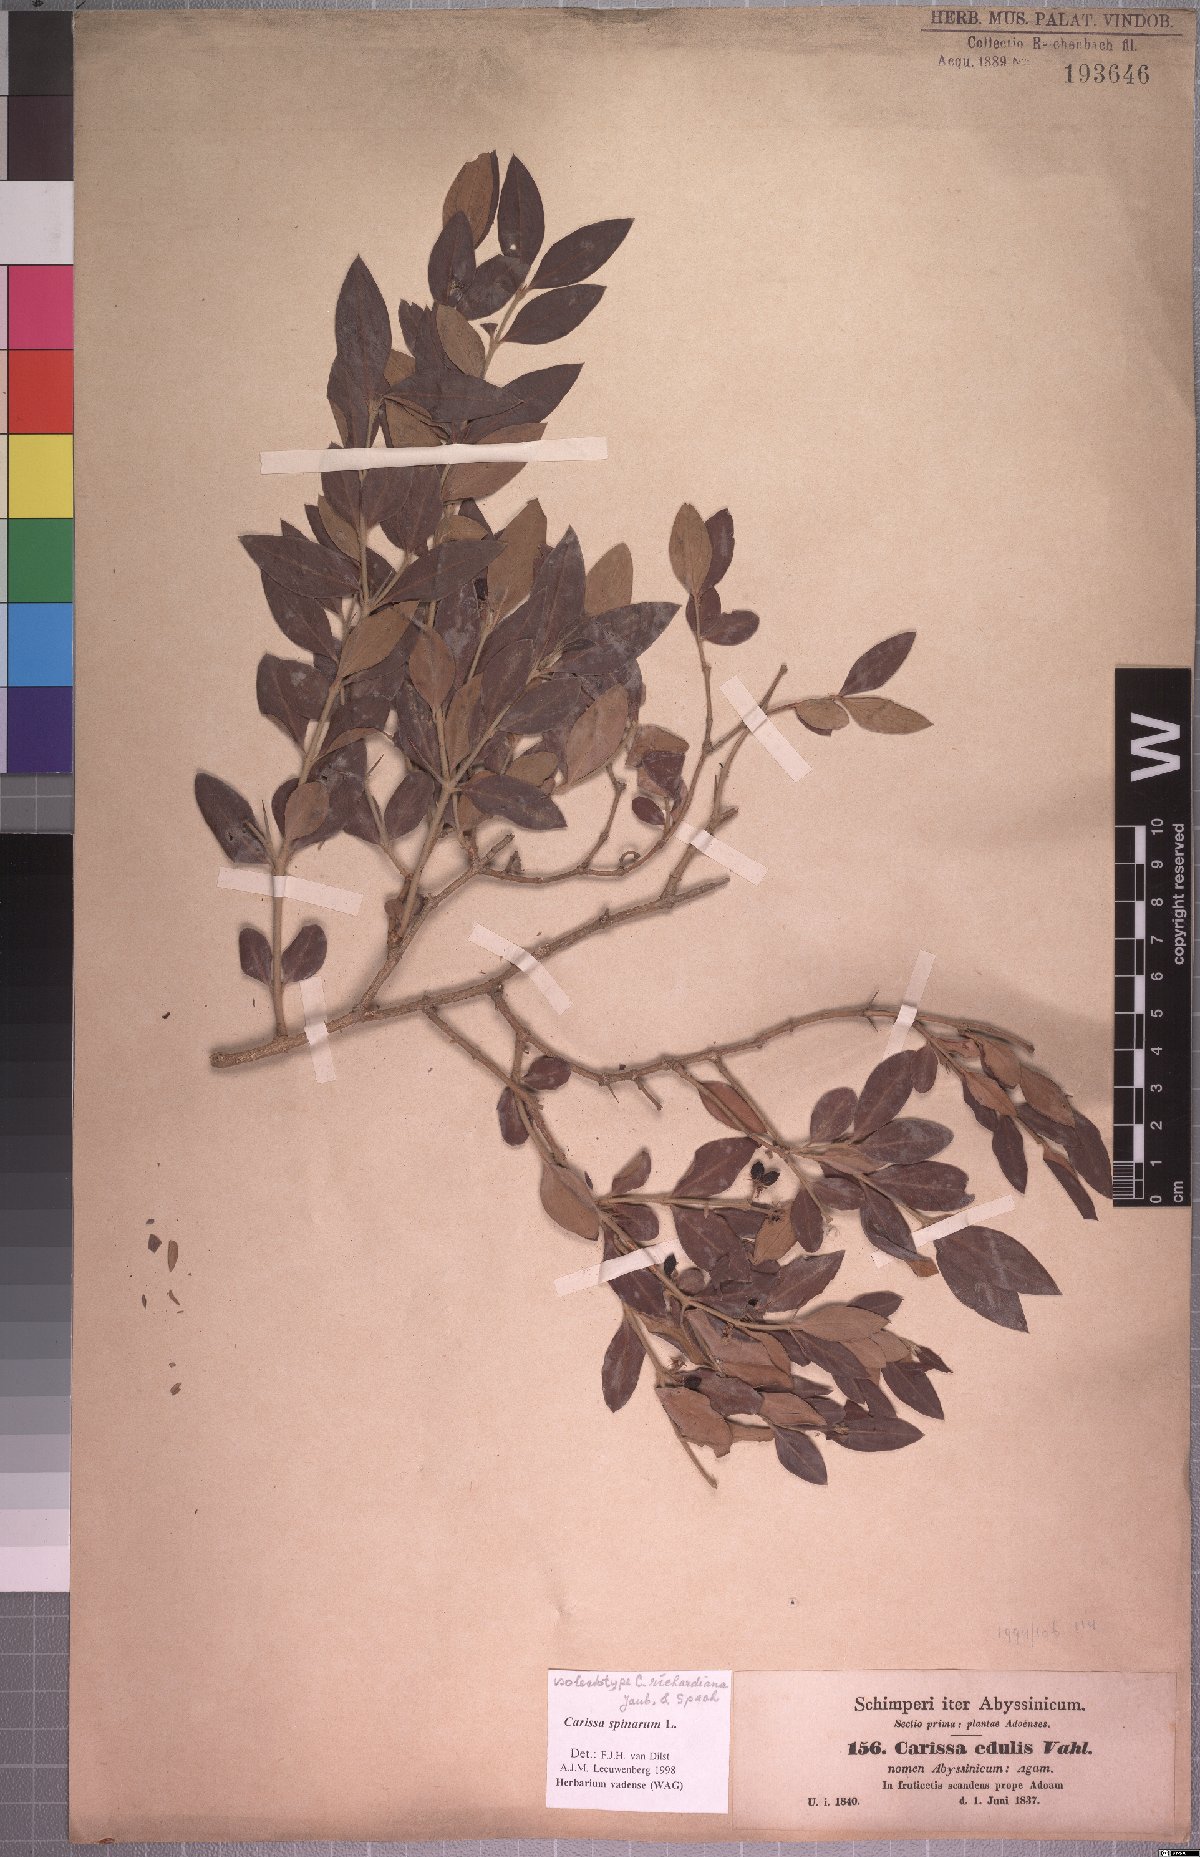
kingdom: Plantae
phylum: Tracheophyta
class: Magnoliopsida
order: Gentianales
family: Apocynaceae
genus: Carissa
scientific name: Carissa spinarum
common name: Egyptian carissa
